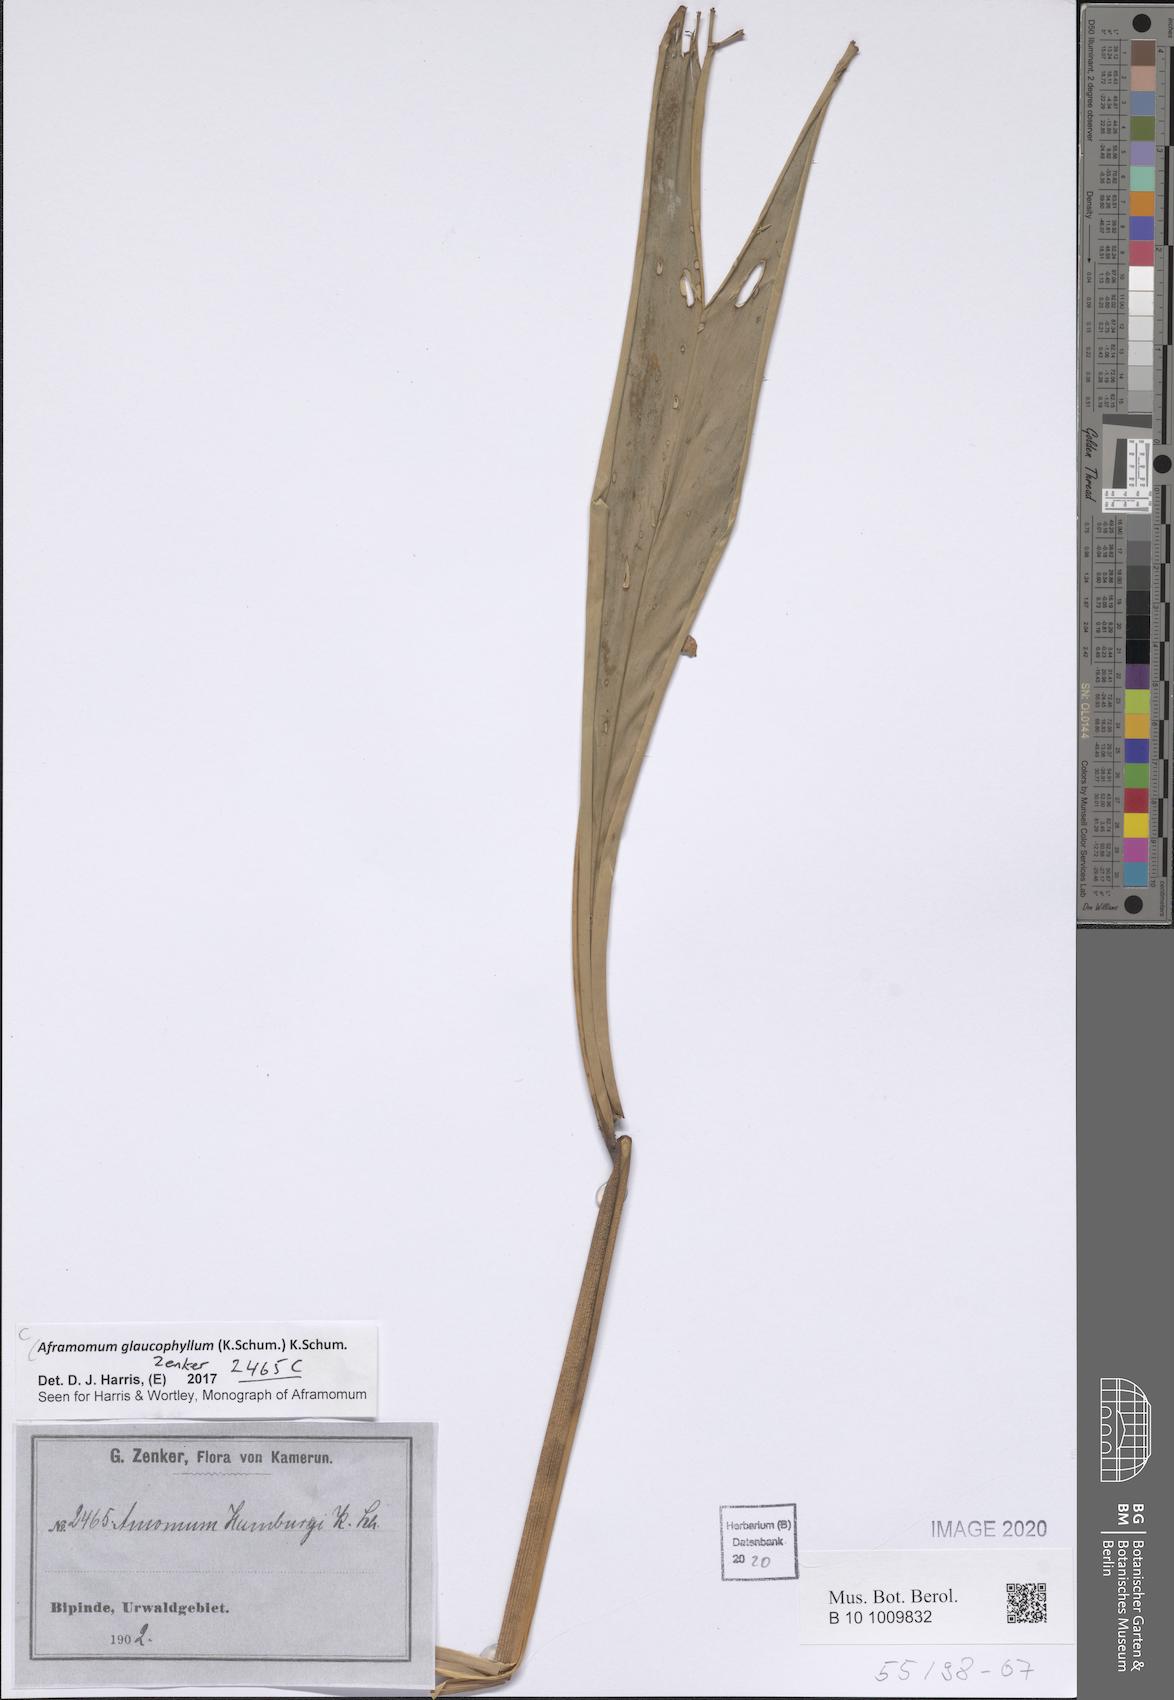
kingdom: Plantae
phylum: Tracheophyta
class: Liliopsida
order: Zingiberales
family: Zingiberaceae
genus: Aframomum
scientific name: Aframomum glaucophyllum
